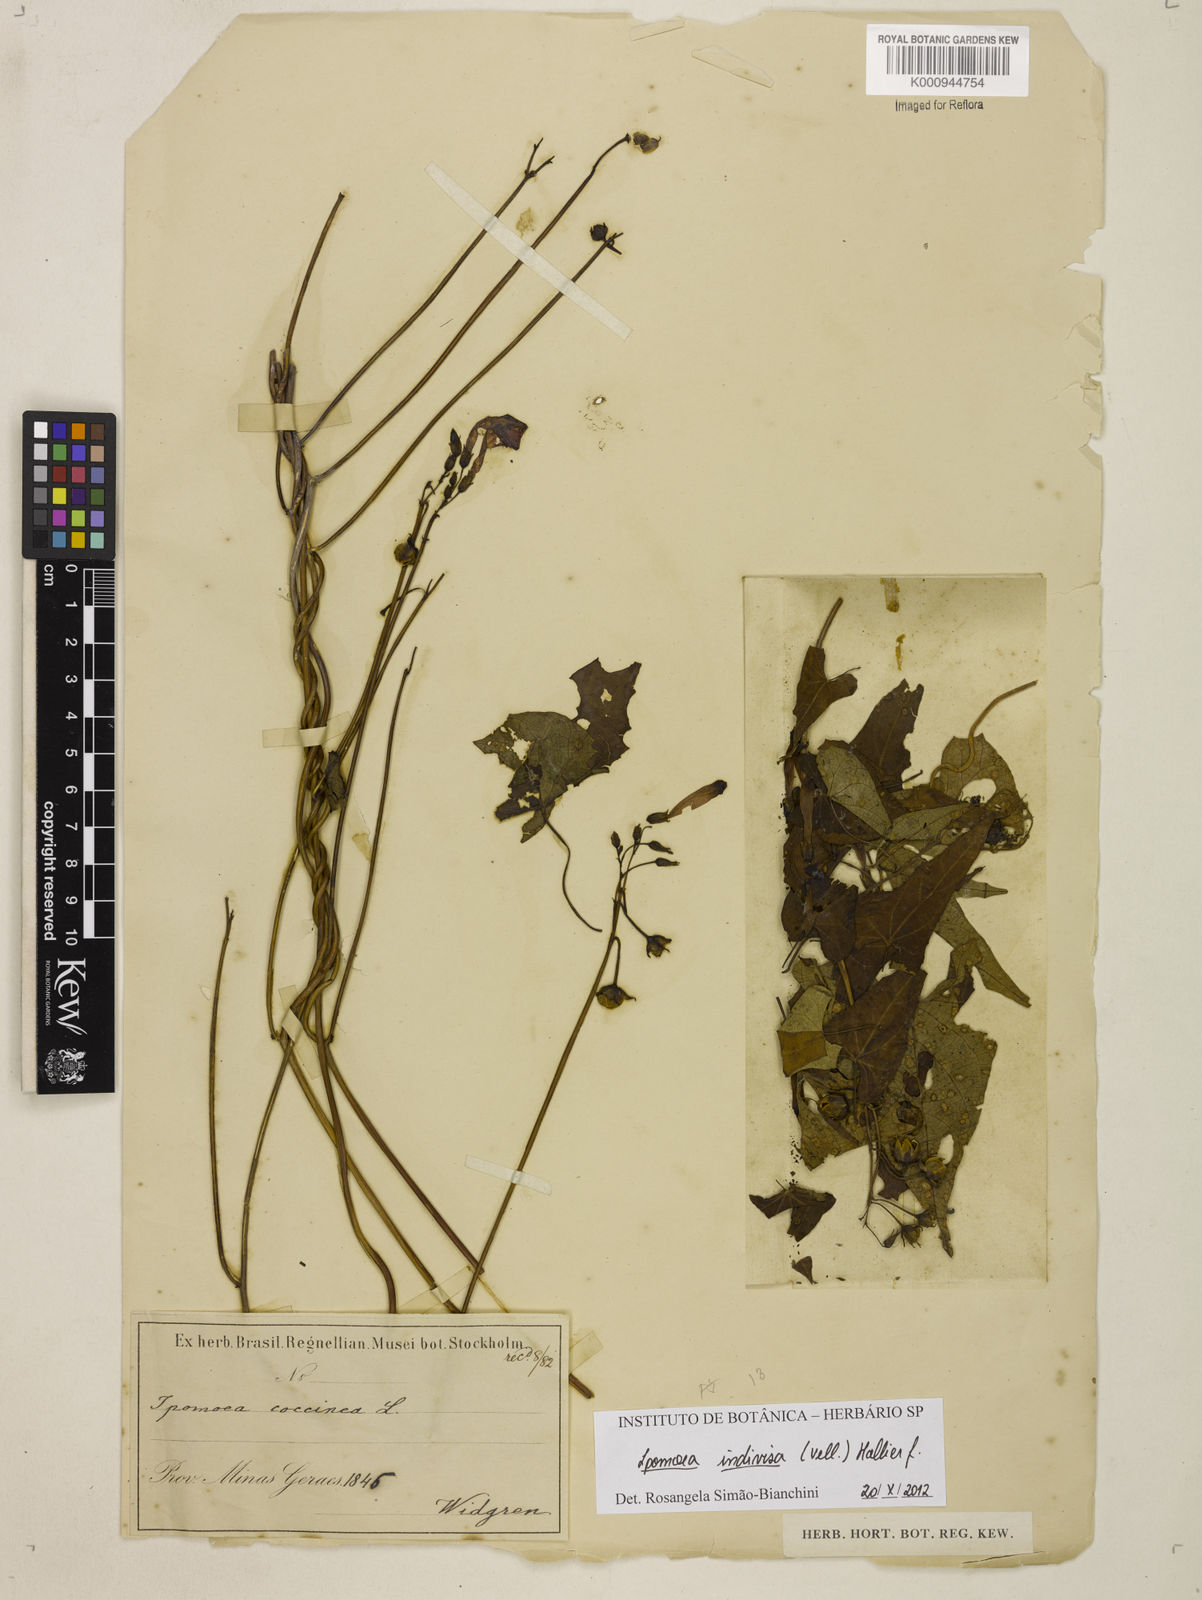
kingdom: Plantae
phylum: Tracheophyta
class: Magnoliopsida
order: Solanales
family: Convolvulaceae
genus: Ipomoea
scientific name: Ipomoea indivisa
